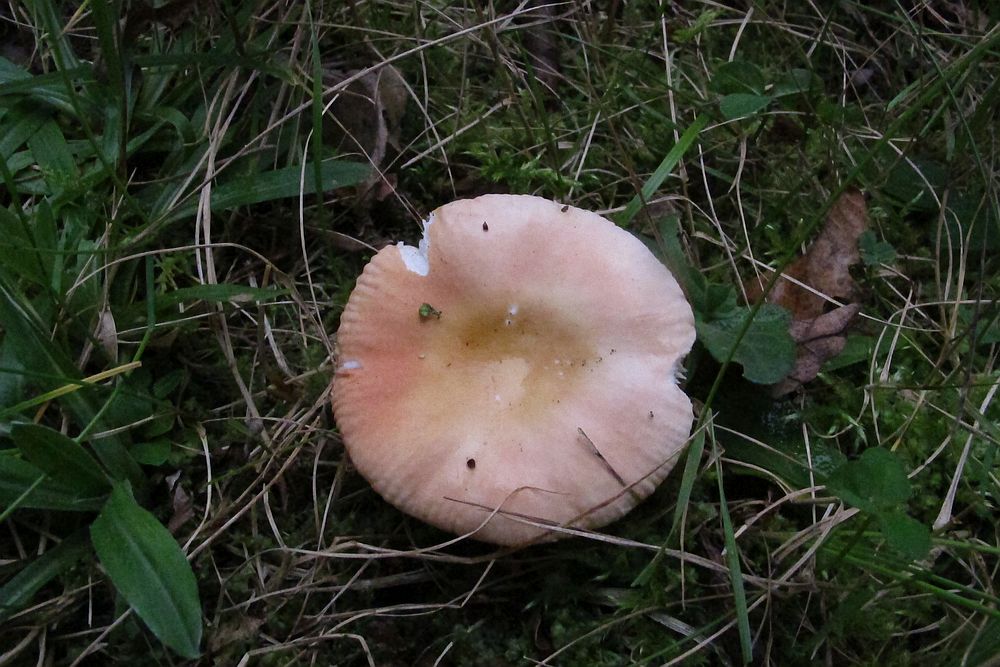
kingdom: Fungi
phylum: Basidiomycota
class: Agaricomycetes
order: Russulales
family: Russulaceae
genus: Russula
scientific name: Russula risigallina
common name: abrikos-skørhat
